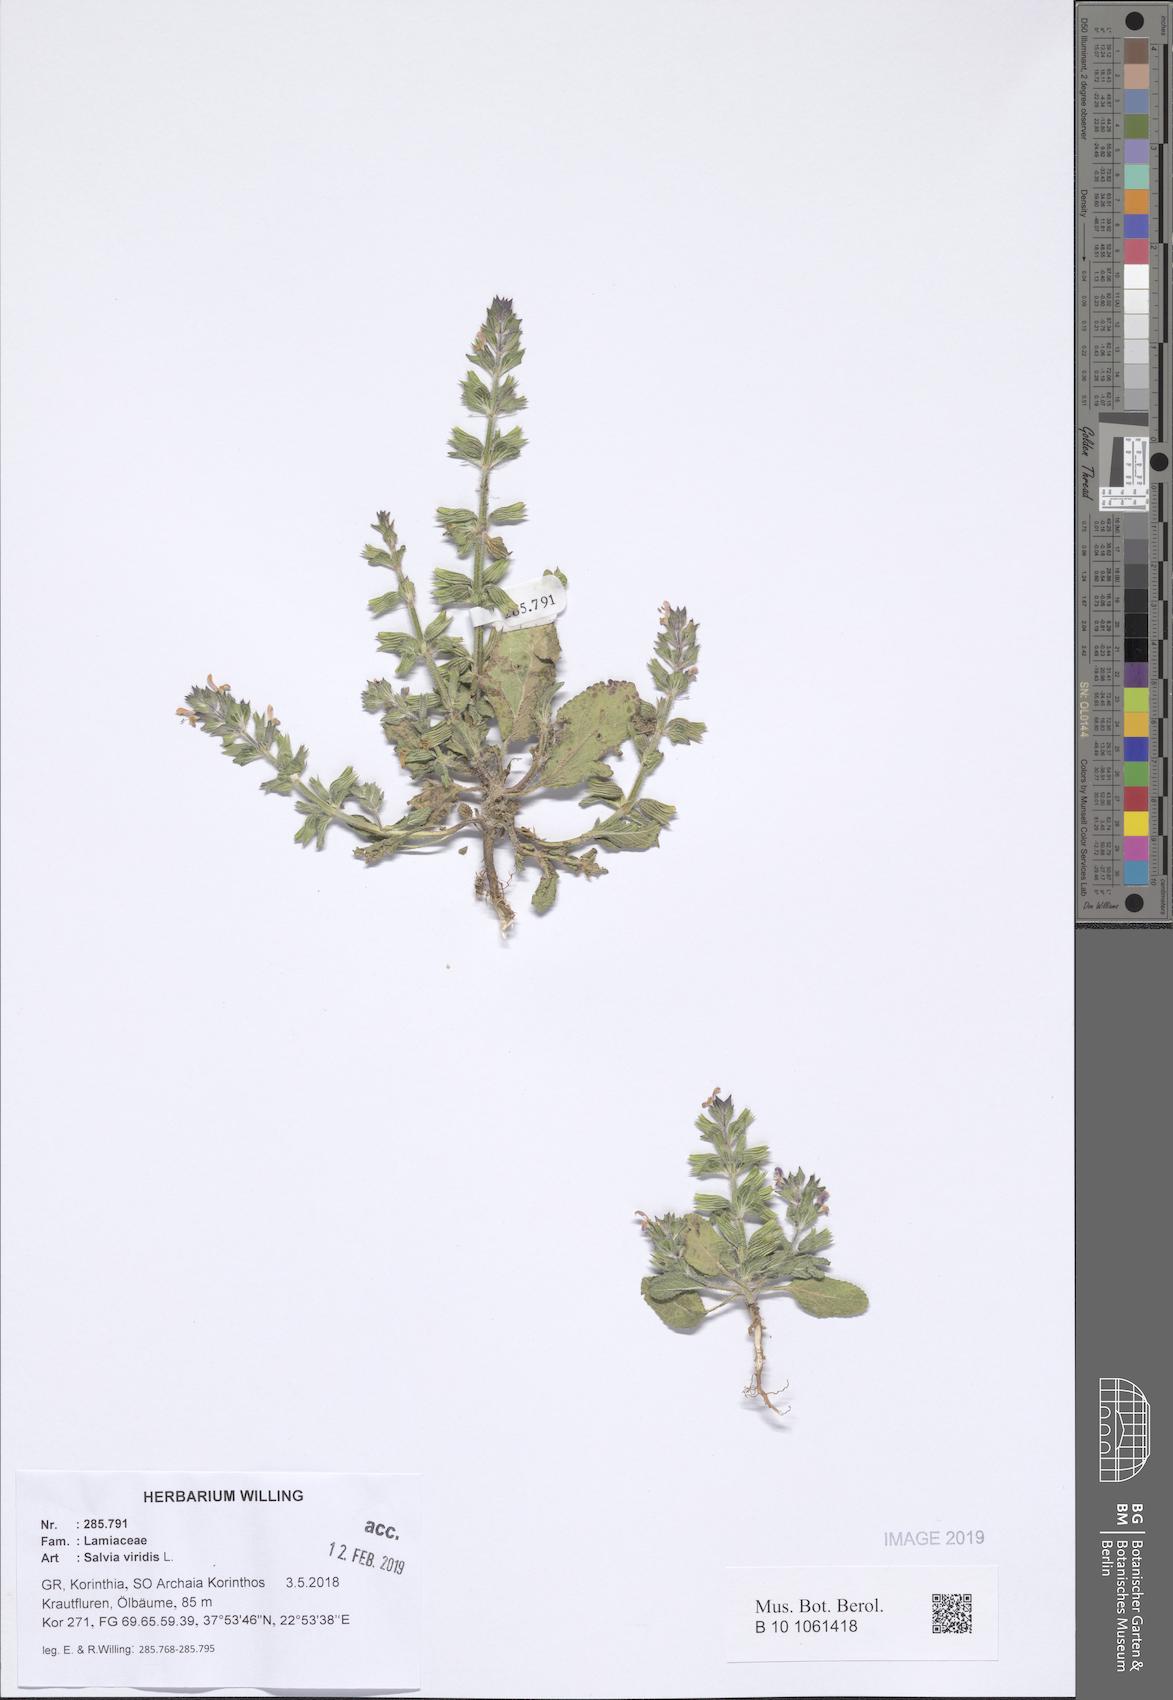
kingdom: Plantae
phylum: Tracheophyta
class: Magnoliopsida
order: Lamiales
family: Lamiaceae
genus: Salvia
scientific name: Salvia viridis
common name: Annual clary
